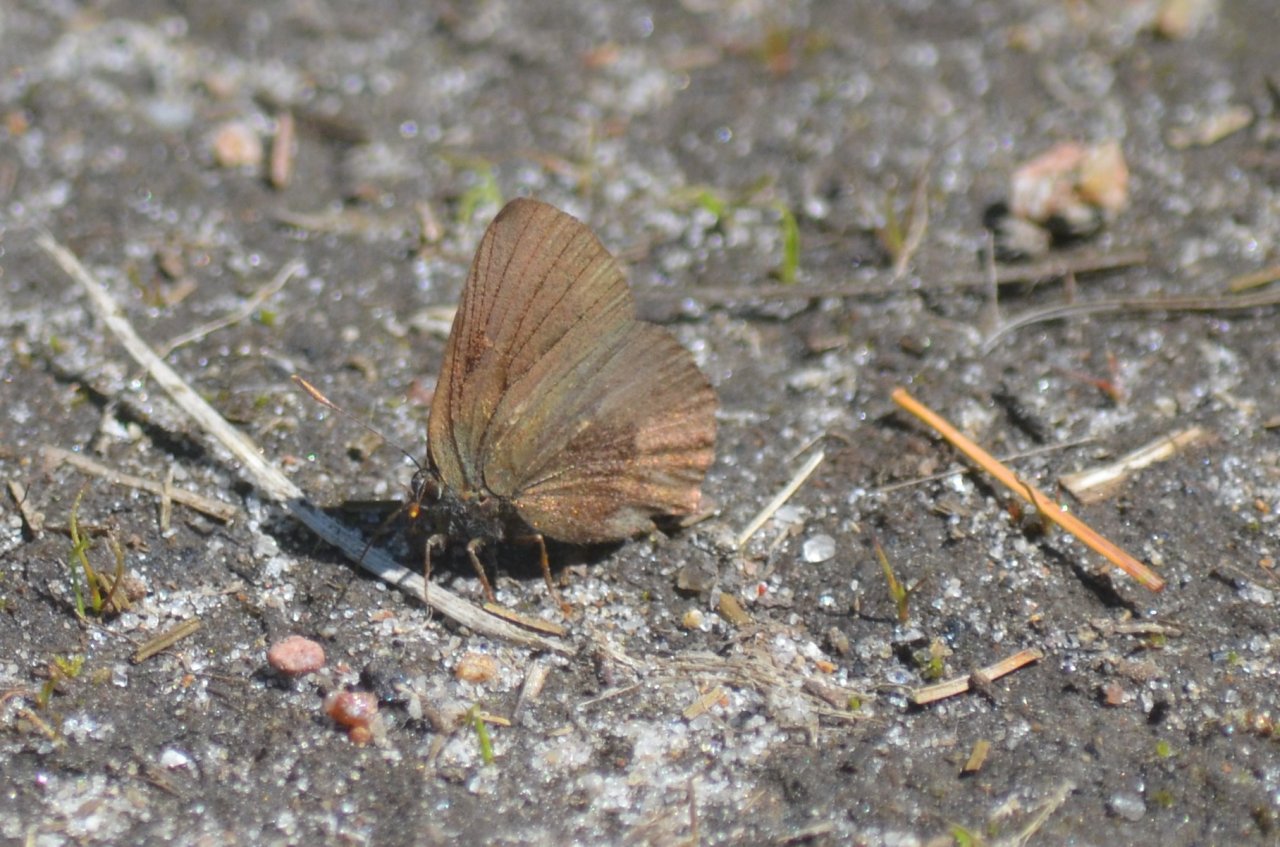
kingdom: Animalia
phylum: Arthropoda
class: Insecta
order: Lepidoptera
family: Lycaenidae
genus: Incisalia
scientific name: Incisalia irioides
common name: Brown Elfin
